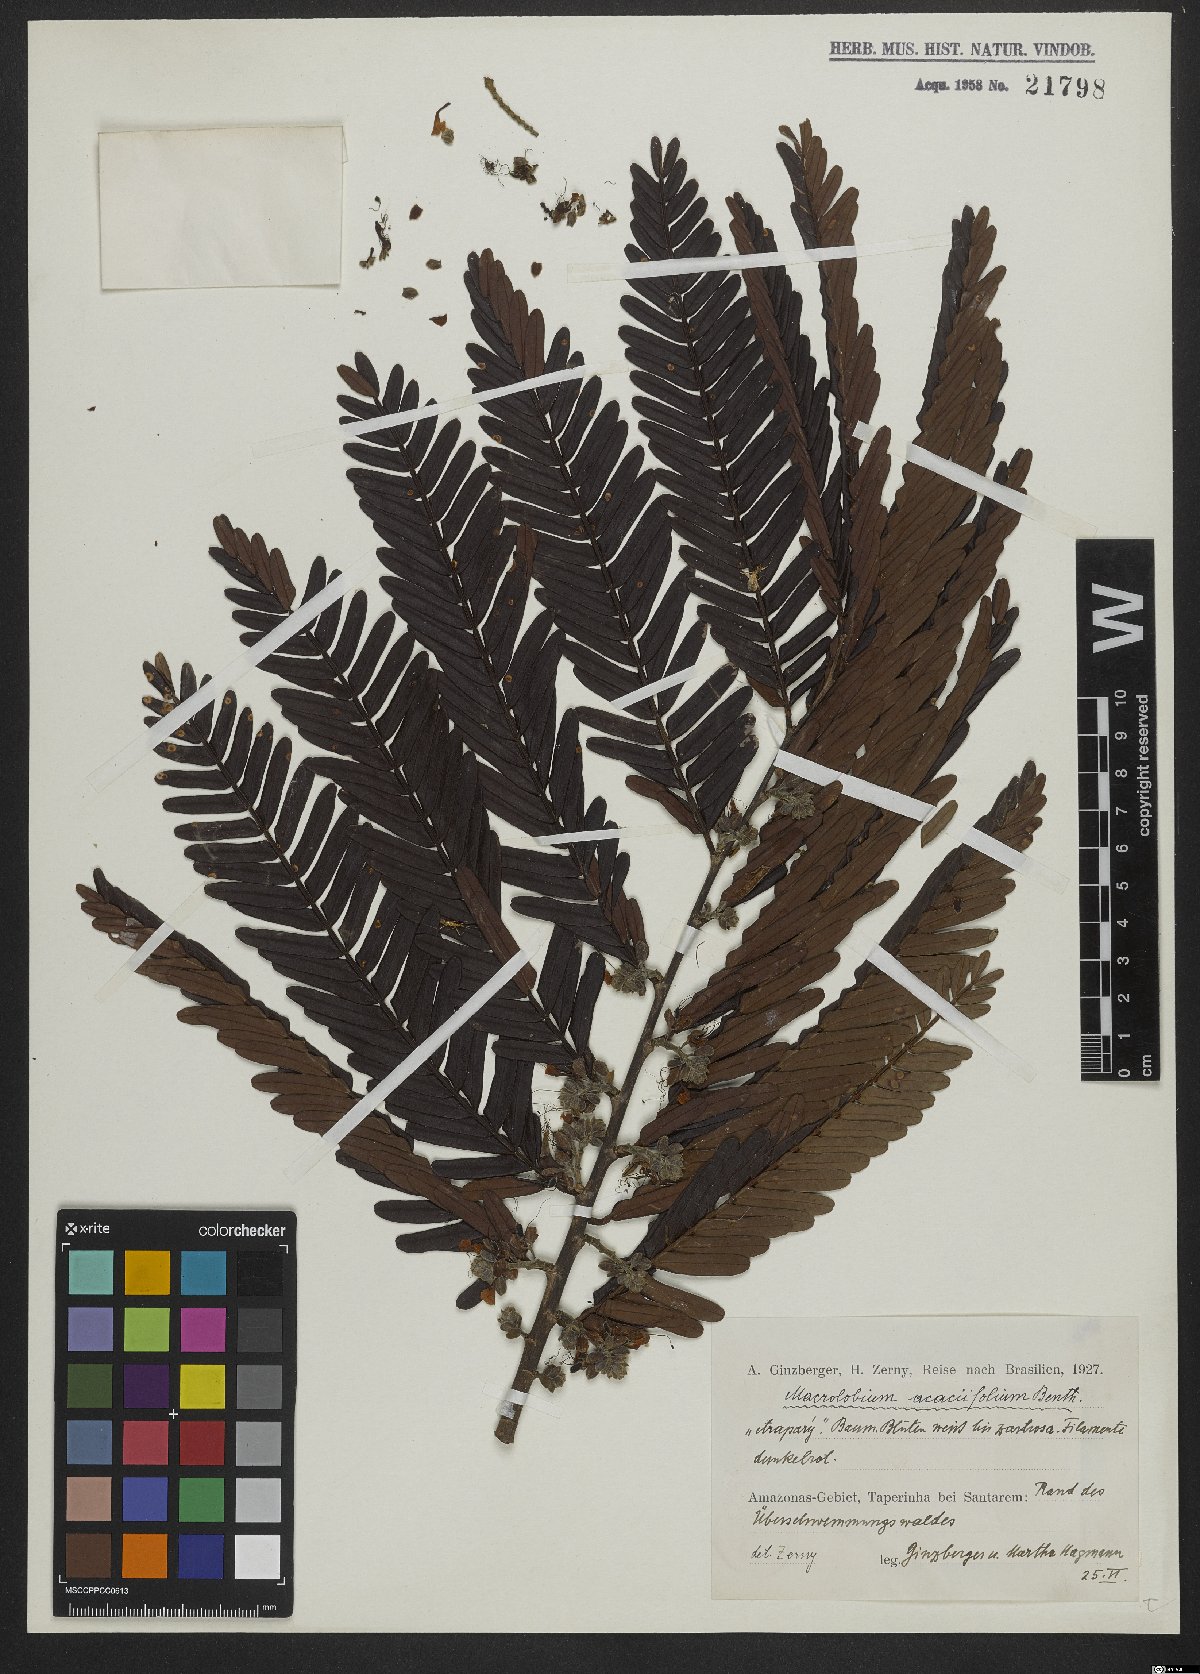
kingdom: Plantae
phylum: Tracheophyta
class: Magnoliopsida
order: Fabales
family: Fabaceae
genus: Macrolobium
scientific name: Macrolobium acaciifolium
